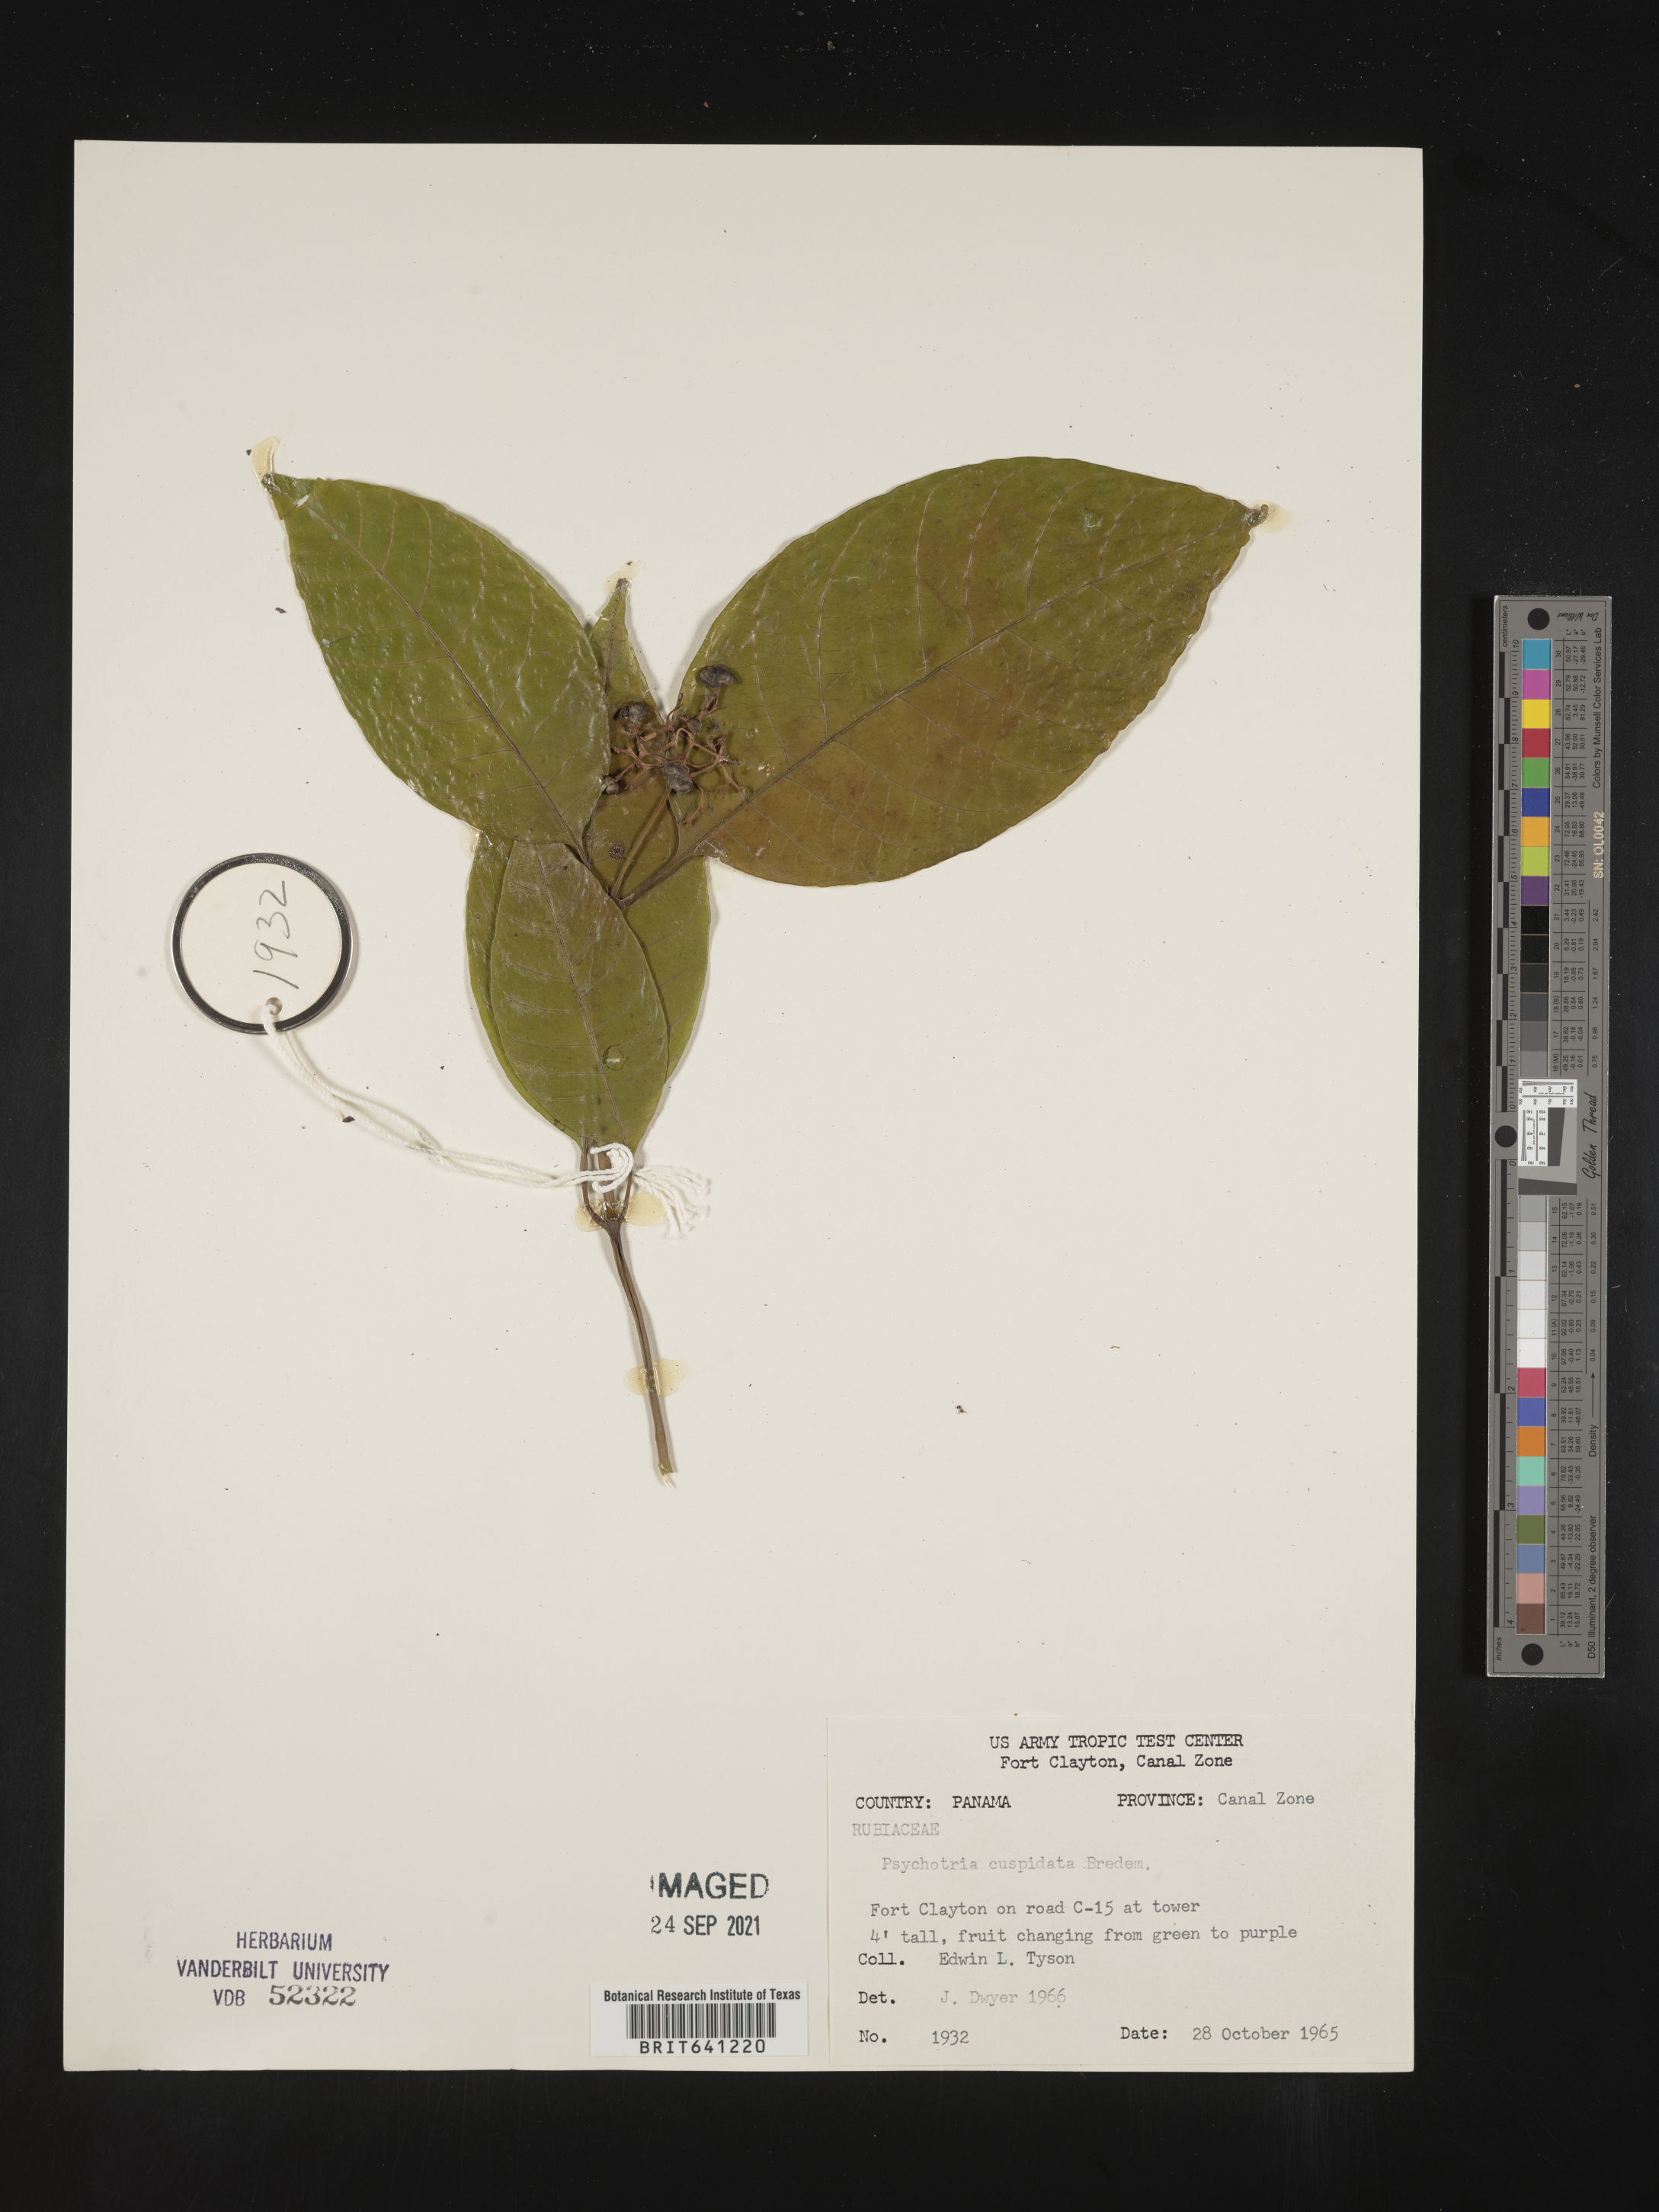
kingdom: Plantae
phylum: Tracheophyta
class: Magnoliopsida
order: Gentianales
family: Rubiaceae
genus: Psychotria
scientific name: Psychotria
